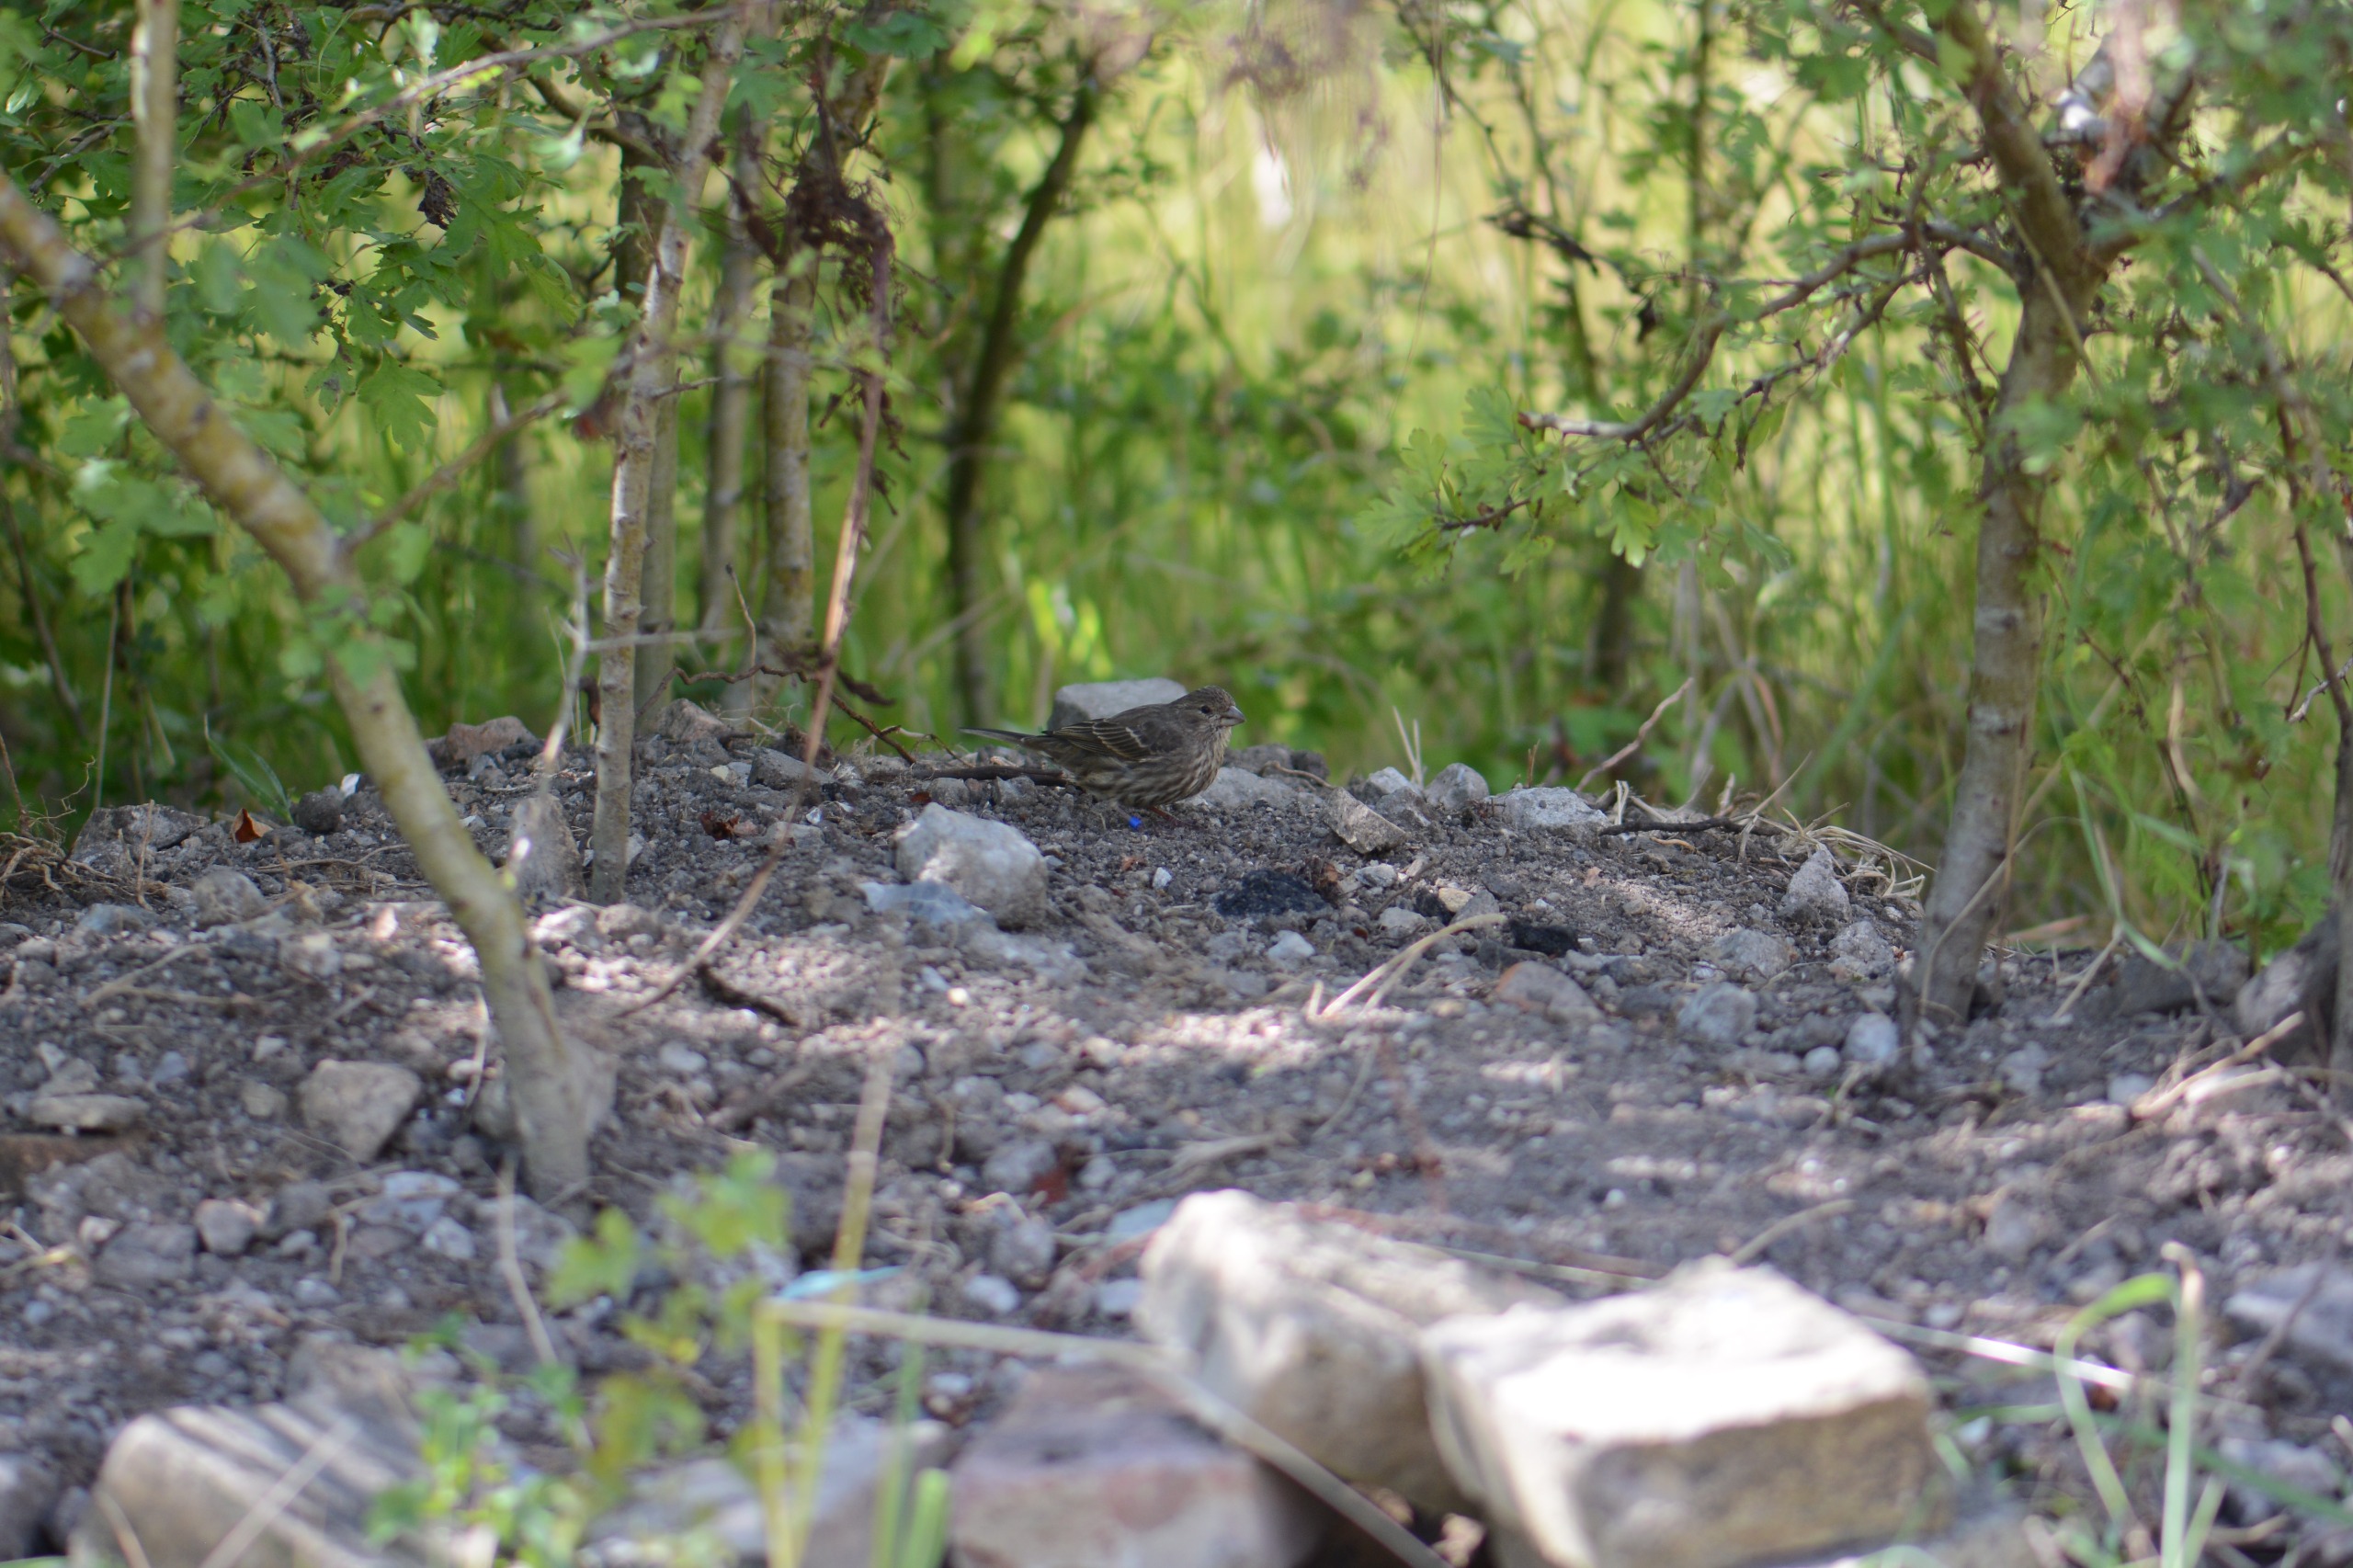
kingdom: Animalia
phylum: Chordata
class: Aves
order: Passeriformes
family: Fringillidae
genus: Carpodacus
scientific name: Carpodacus erythrinus
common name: Karmindompap
